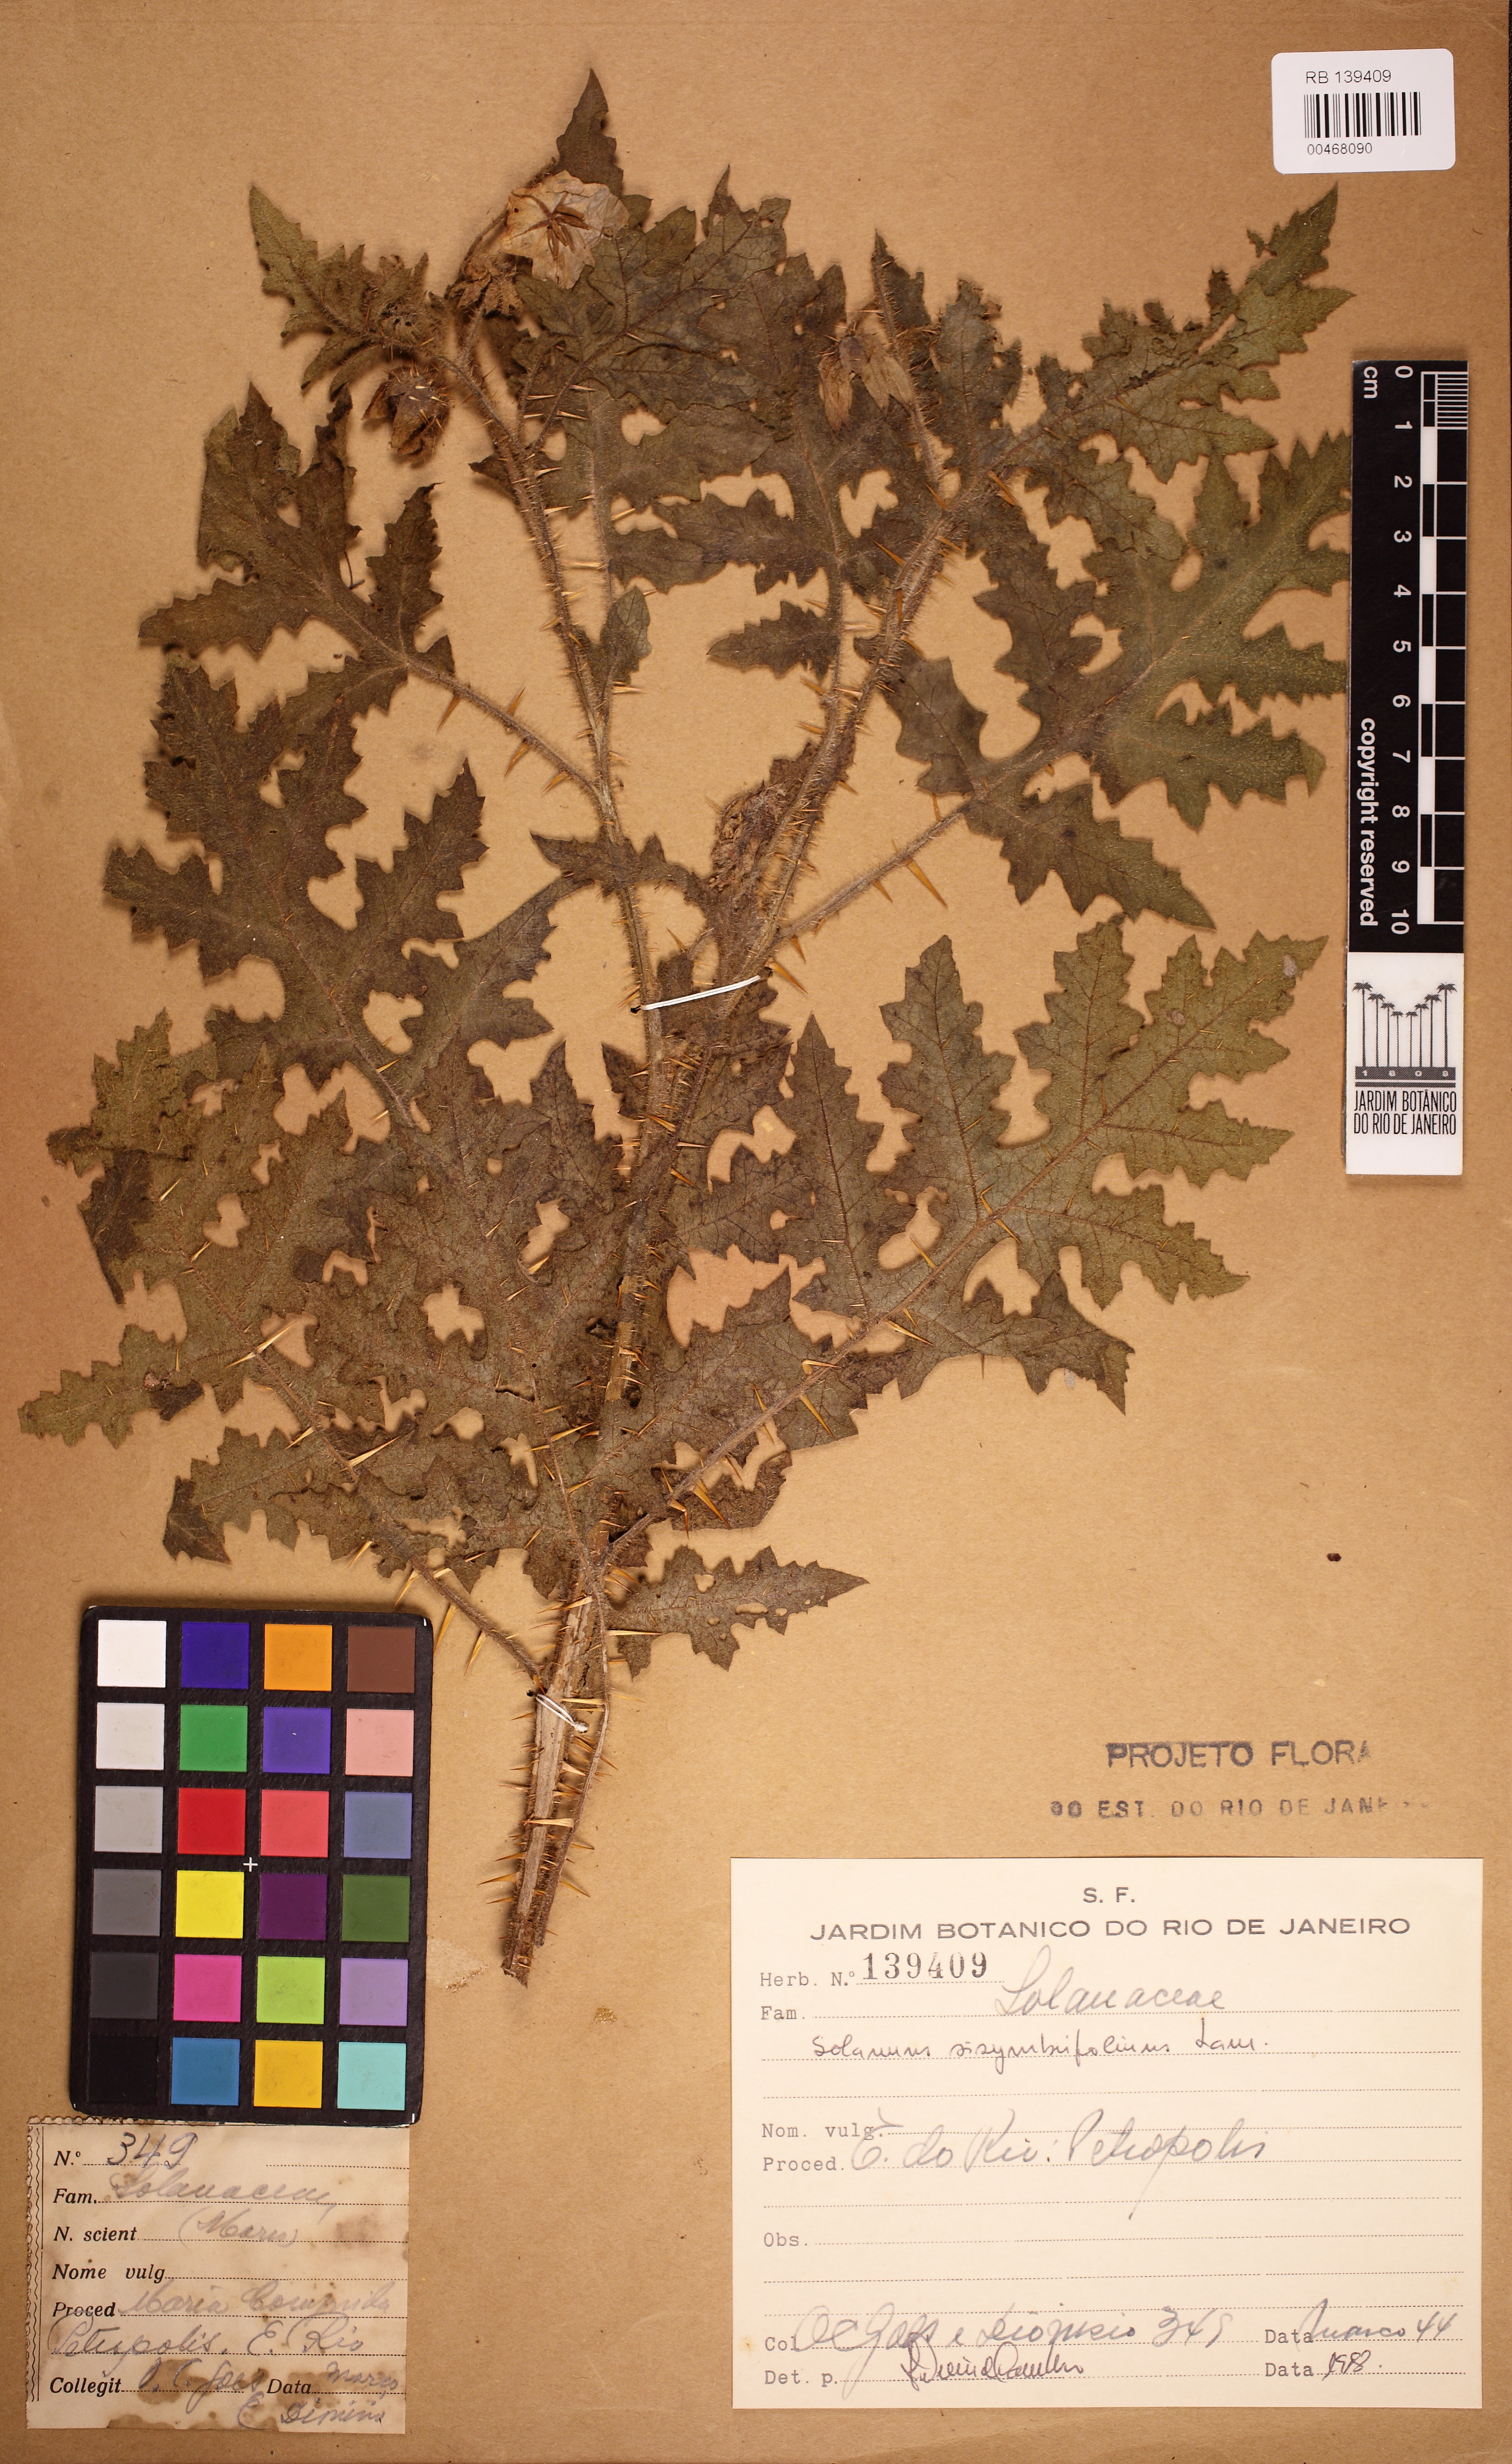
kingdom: Plantae
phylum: Tracheophyta
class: Magnoliopsida
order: Solanales
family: Solanaceae
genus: Solanum
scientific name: Solanum sisymbriifolium
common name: Red buffalo-bur
